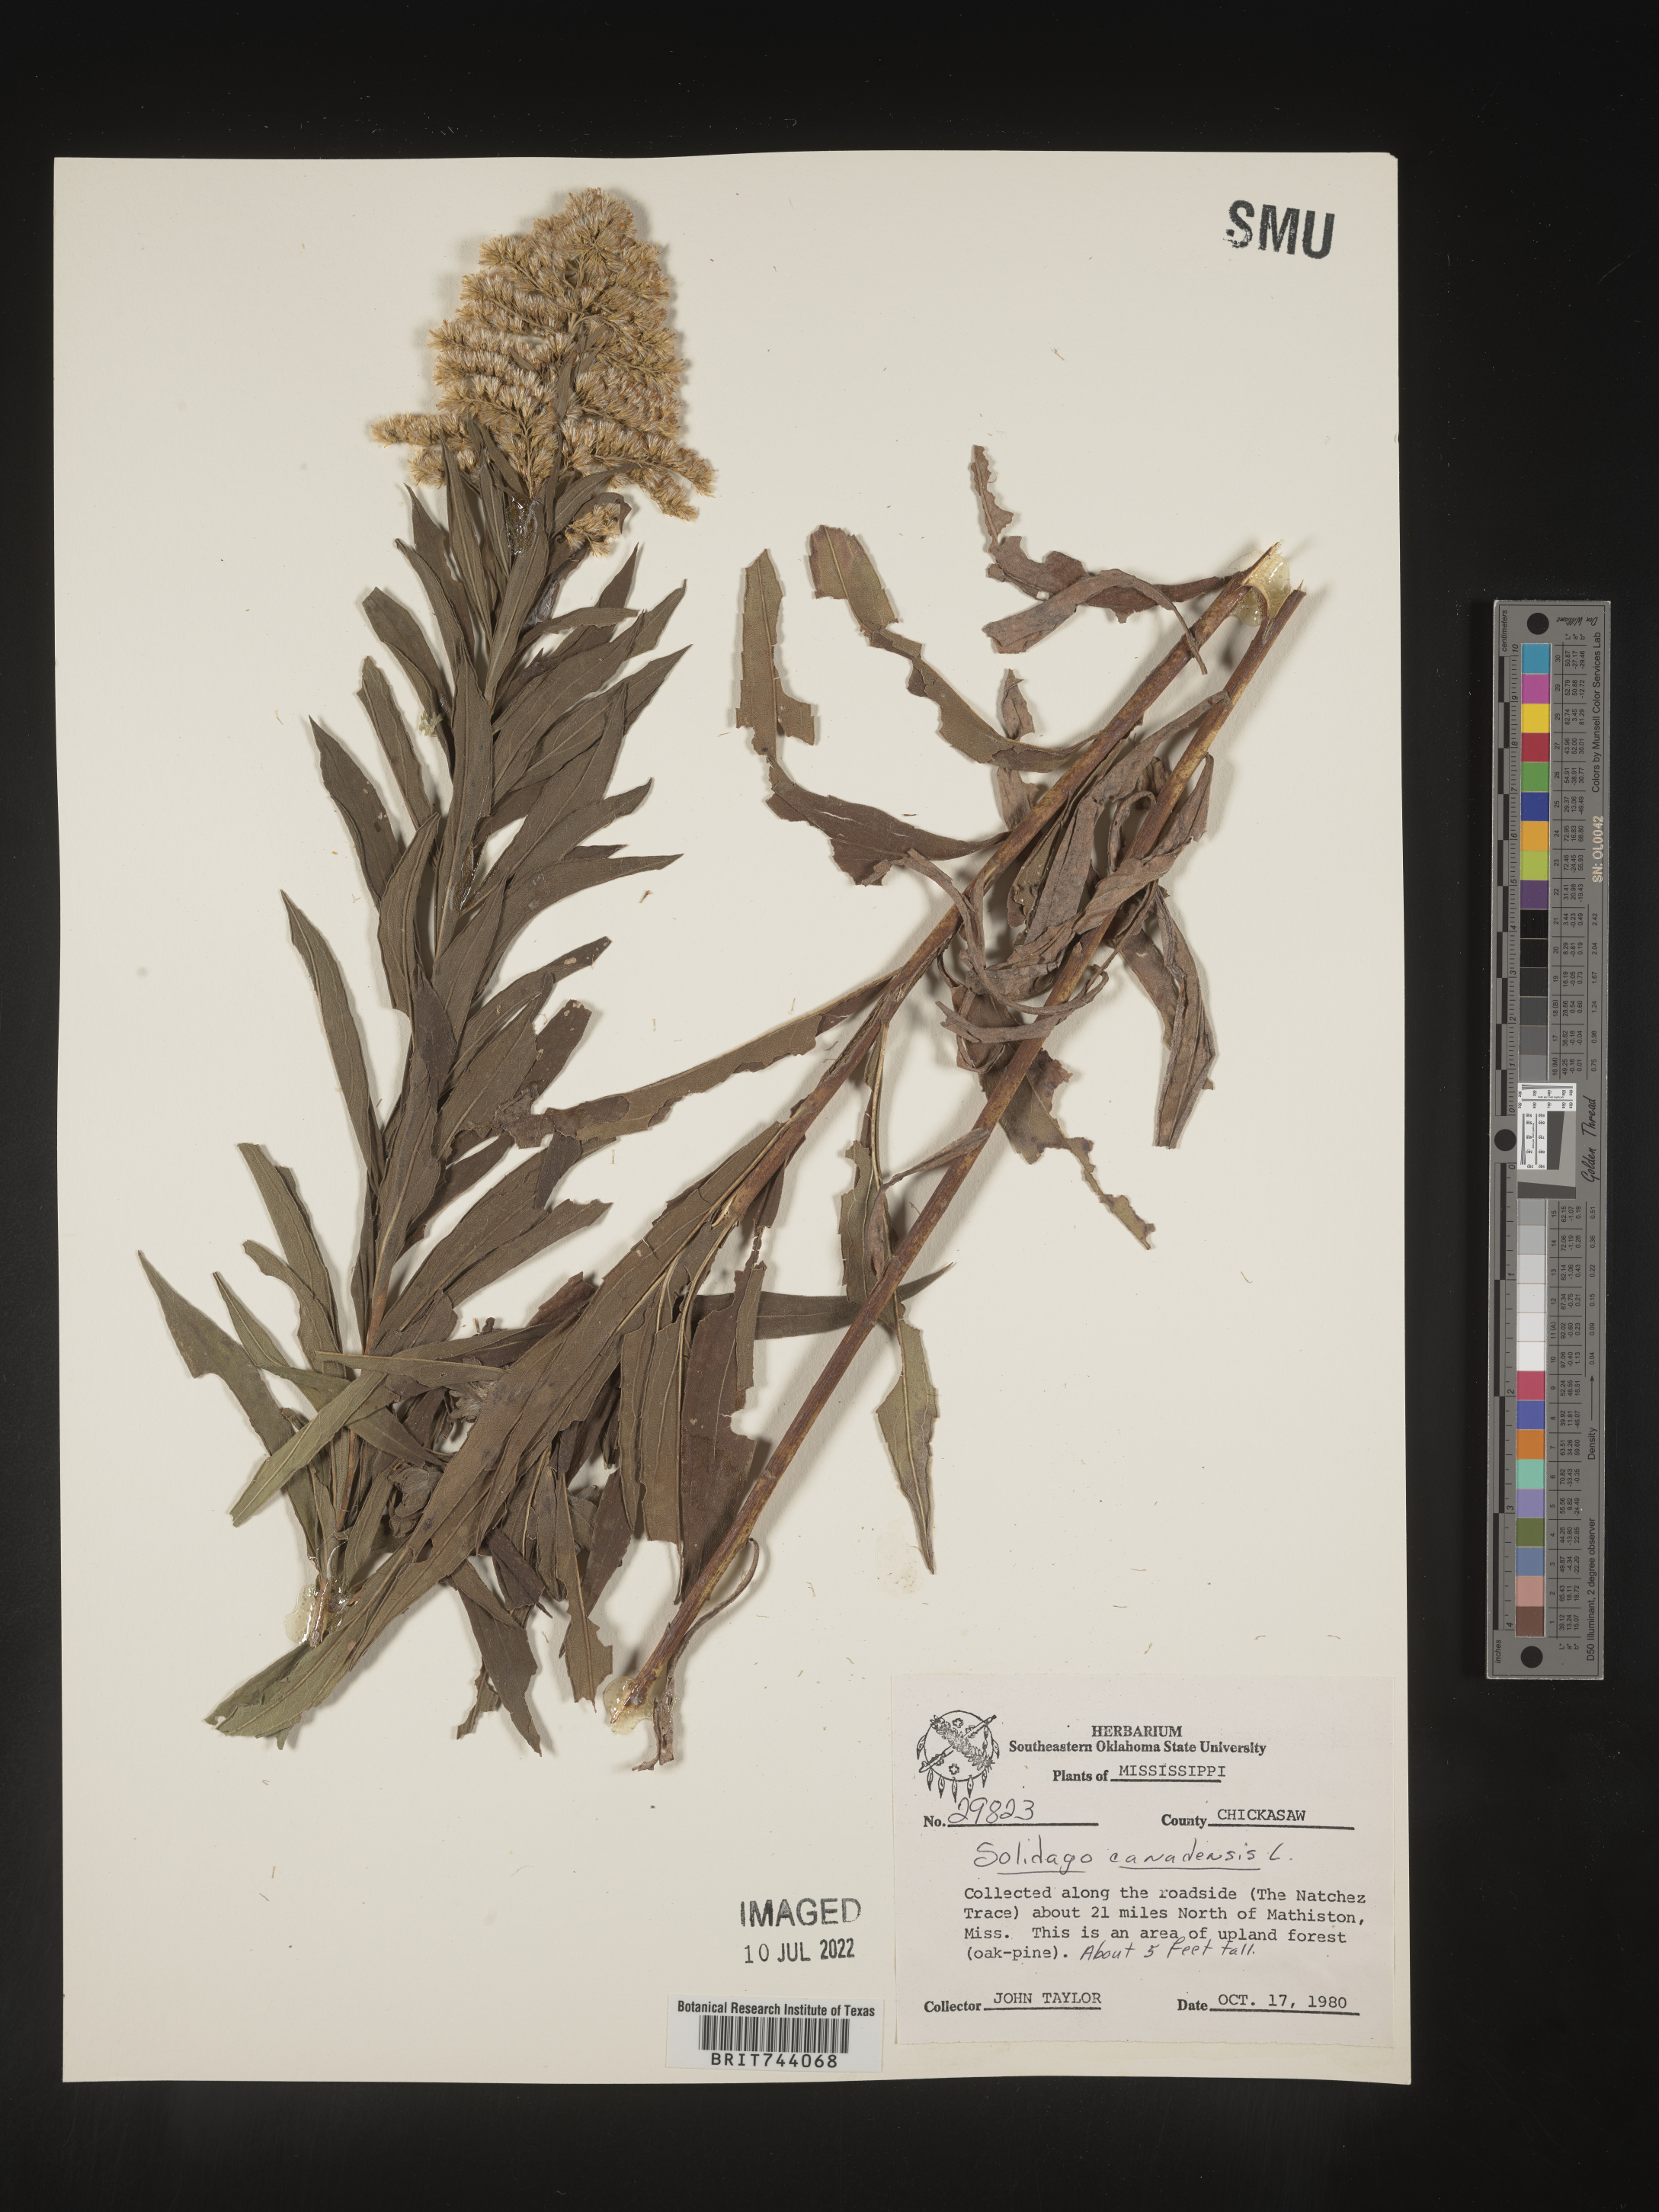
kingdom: Plantae
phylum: Tracheophyta
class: Magnoliopsida
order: Asterales
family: Asteraceae
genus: Solidago
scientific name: Solidago altissima
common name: Late goldenrod
